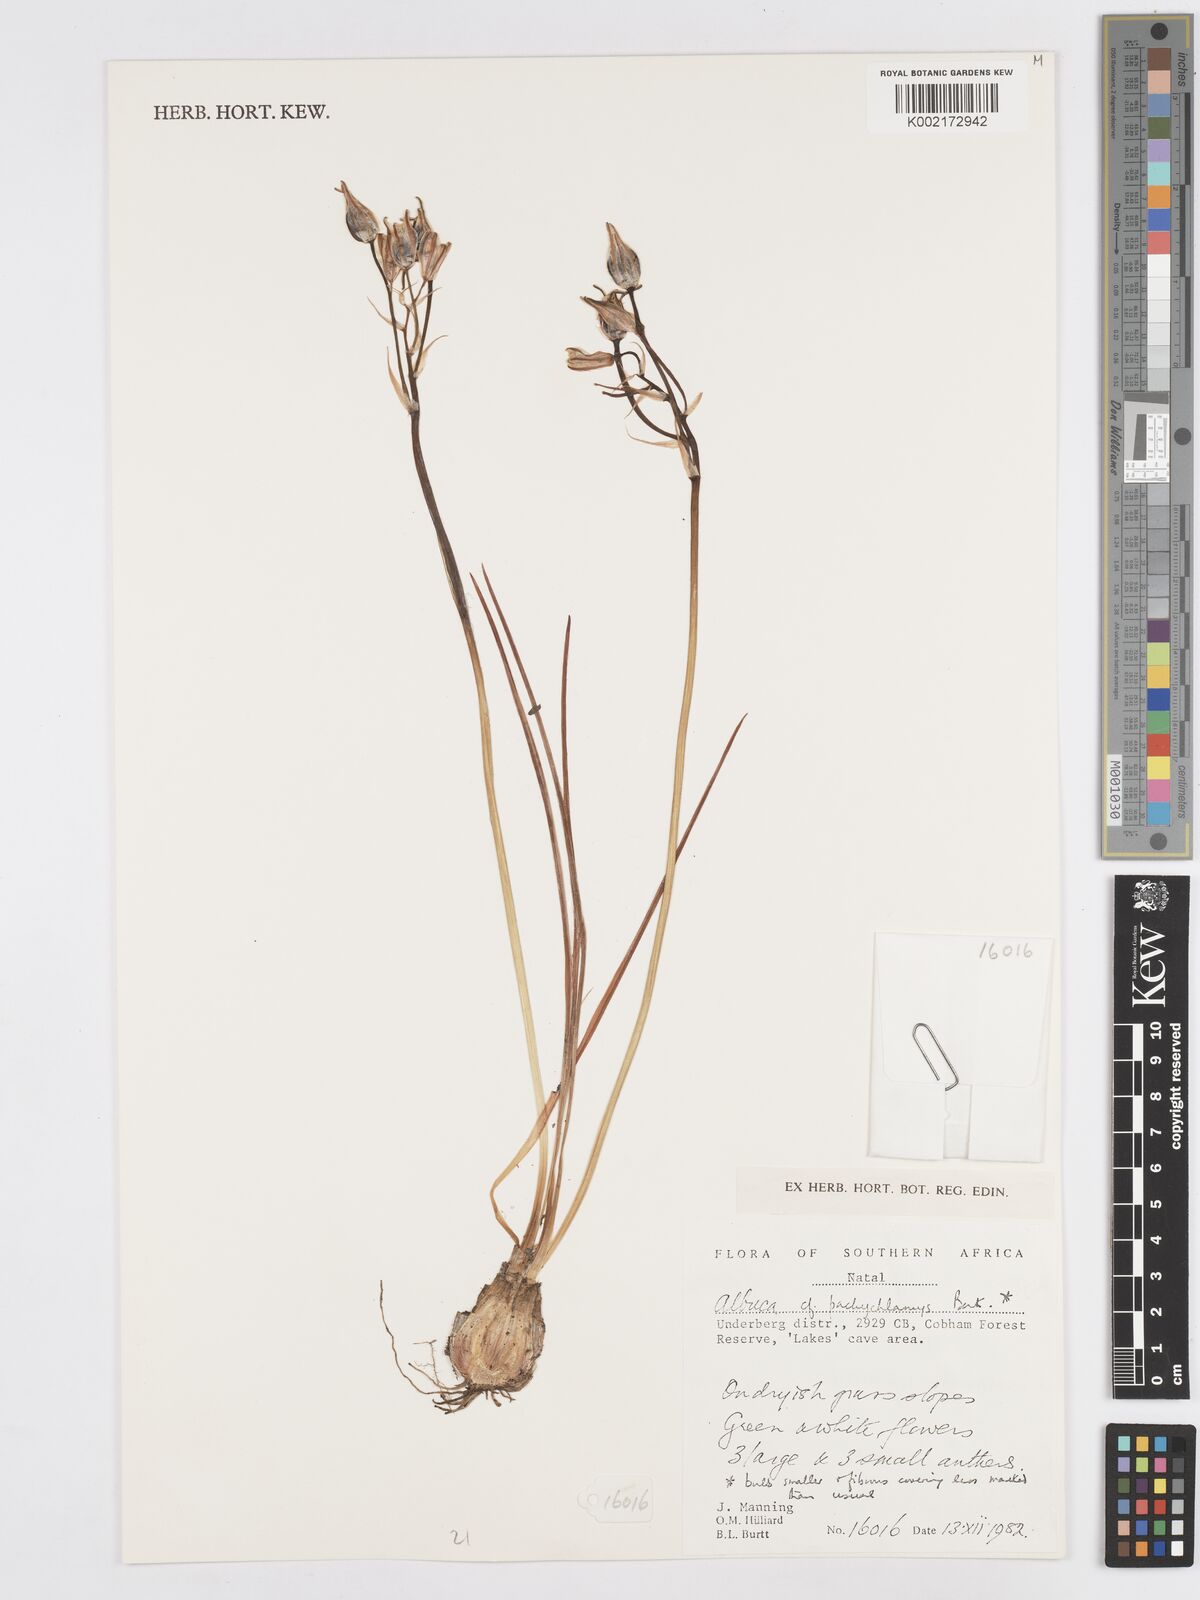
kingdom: Plantae
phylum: Tracheophyta
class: Liliopsida
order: Asparagales
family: Asparagaceae
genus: Albuca
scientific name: Albuca setosa
